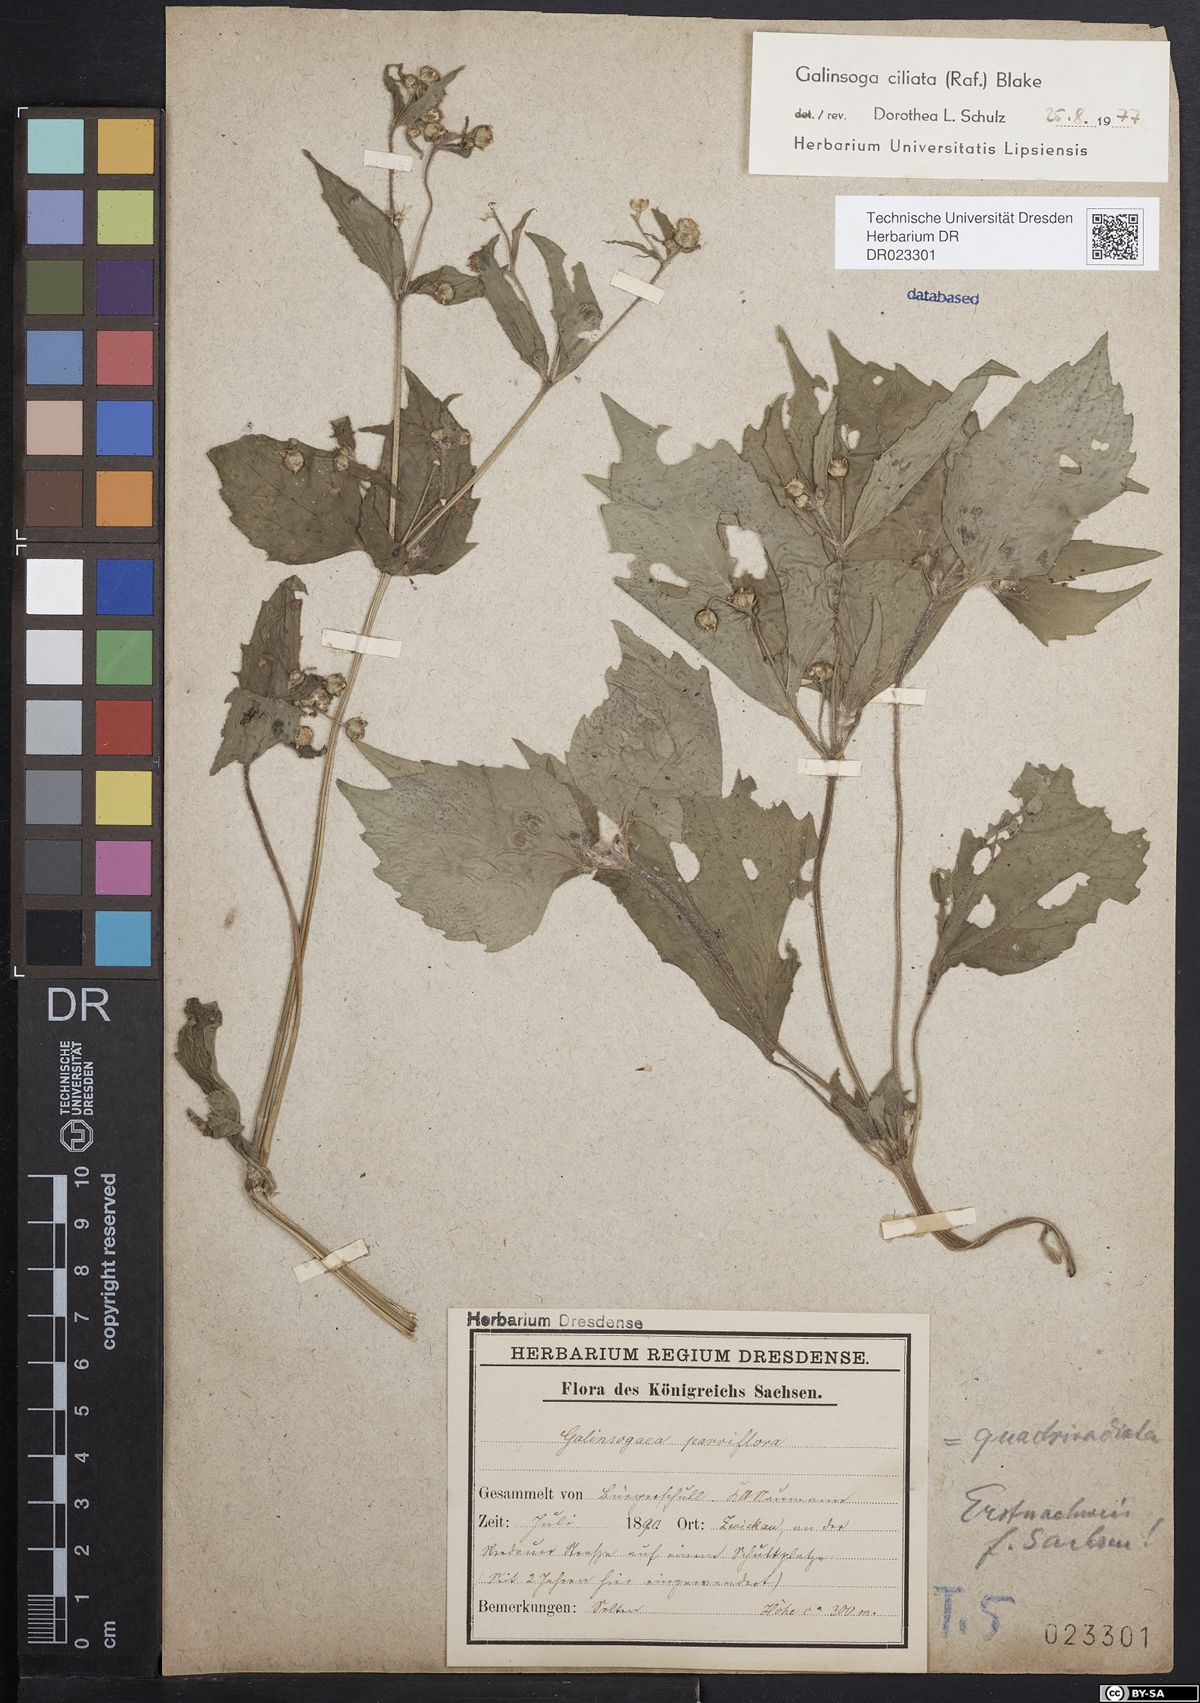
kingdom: Plantae
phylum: Tracheophyta
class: Magnoliopsida
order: Asterales
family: Asteraceae
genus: Galinsoga
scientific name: Galinsoga quadriradiata
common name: Shaggy soldier
